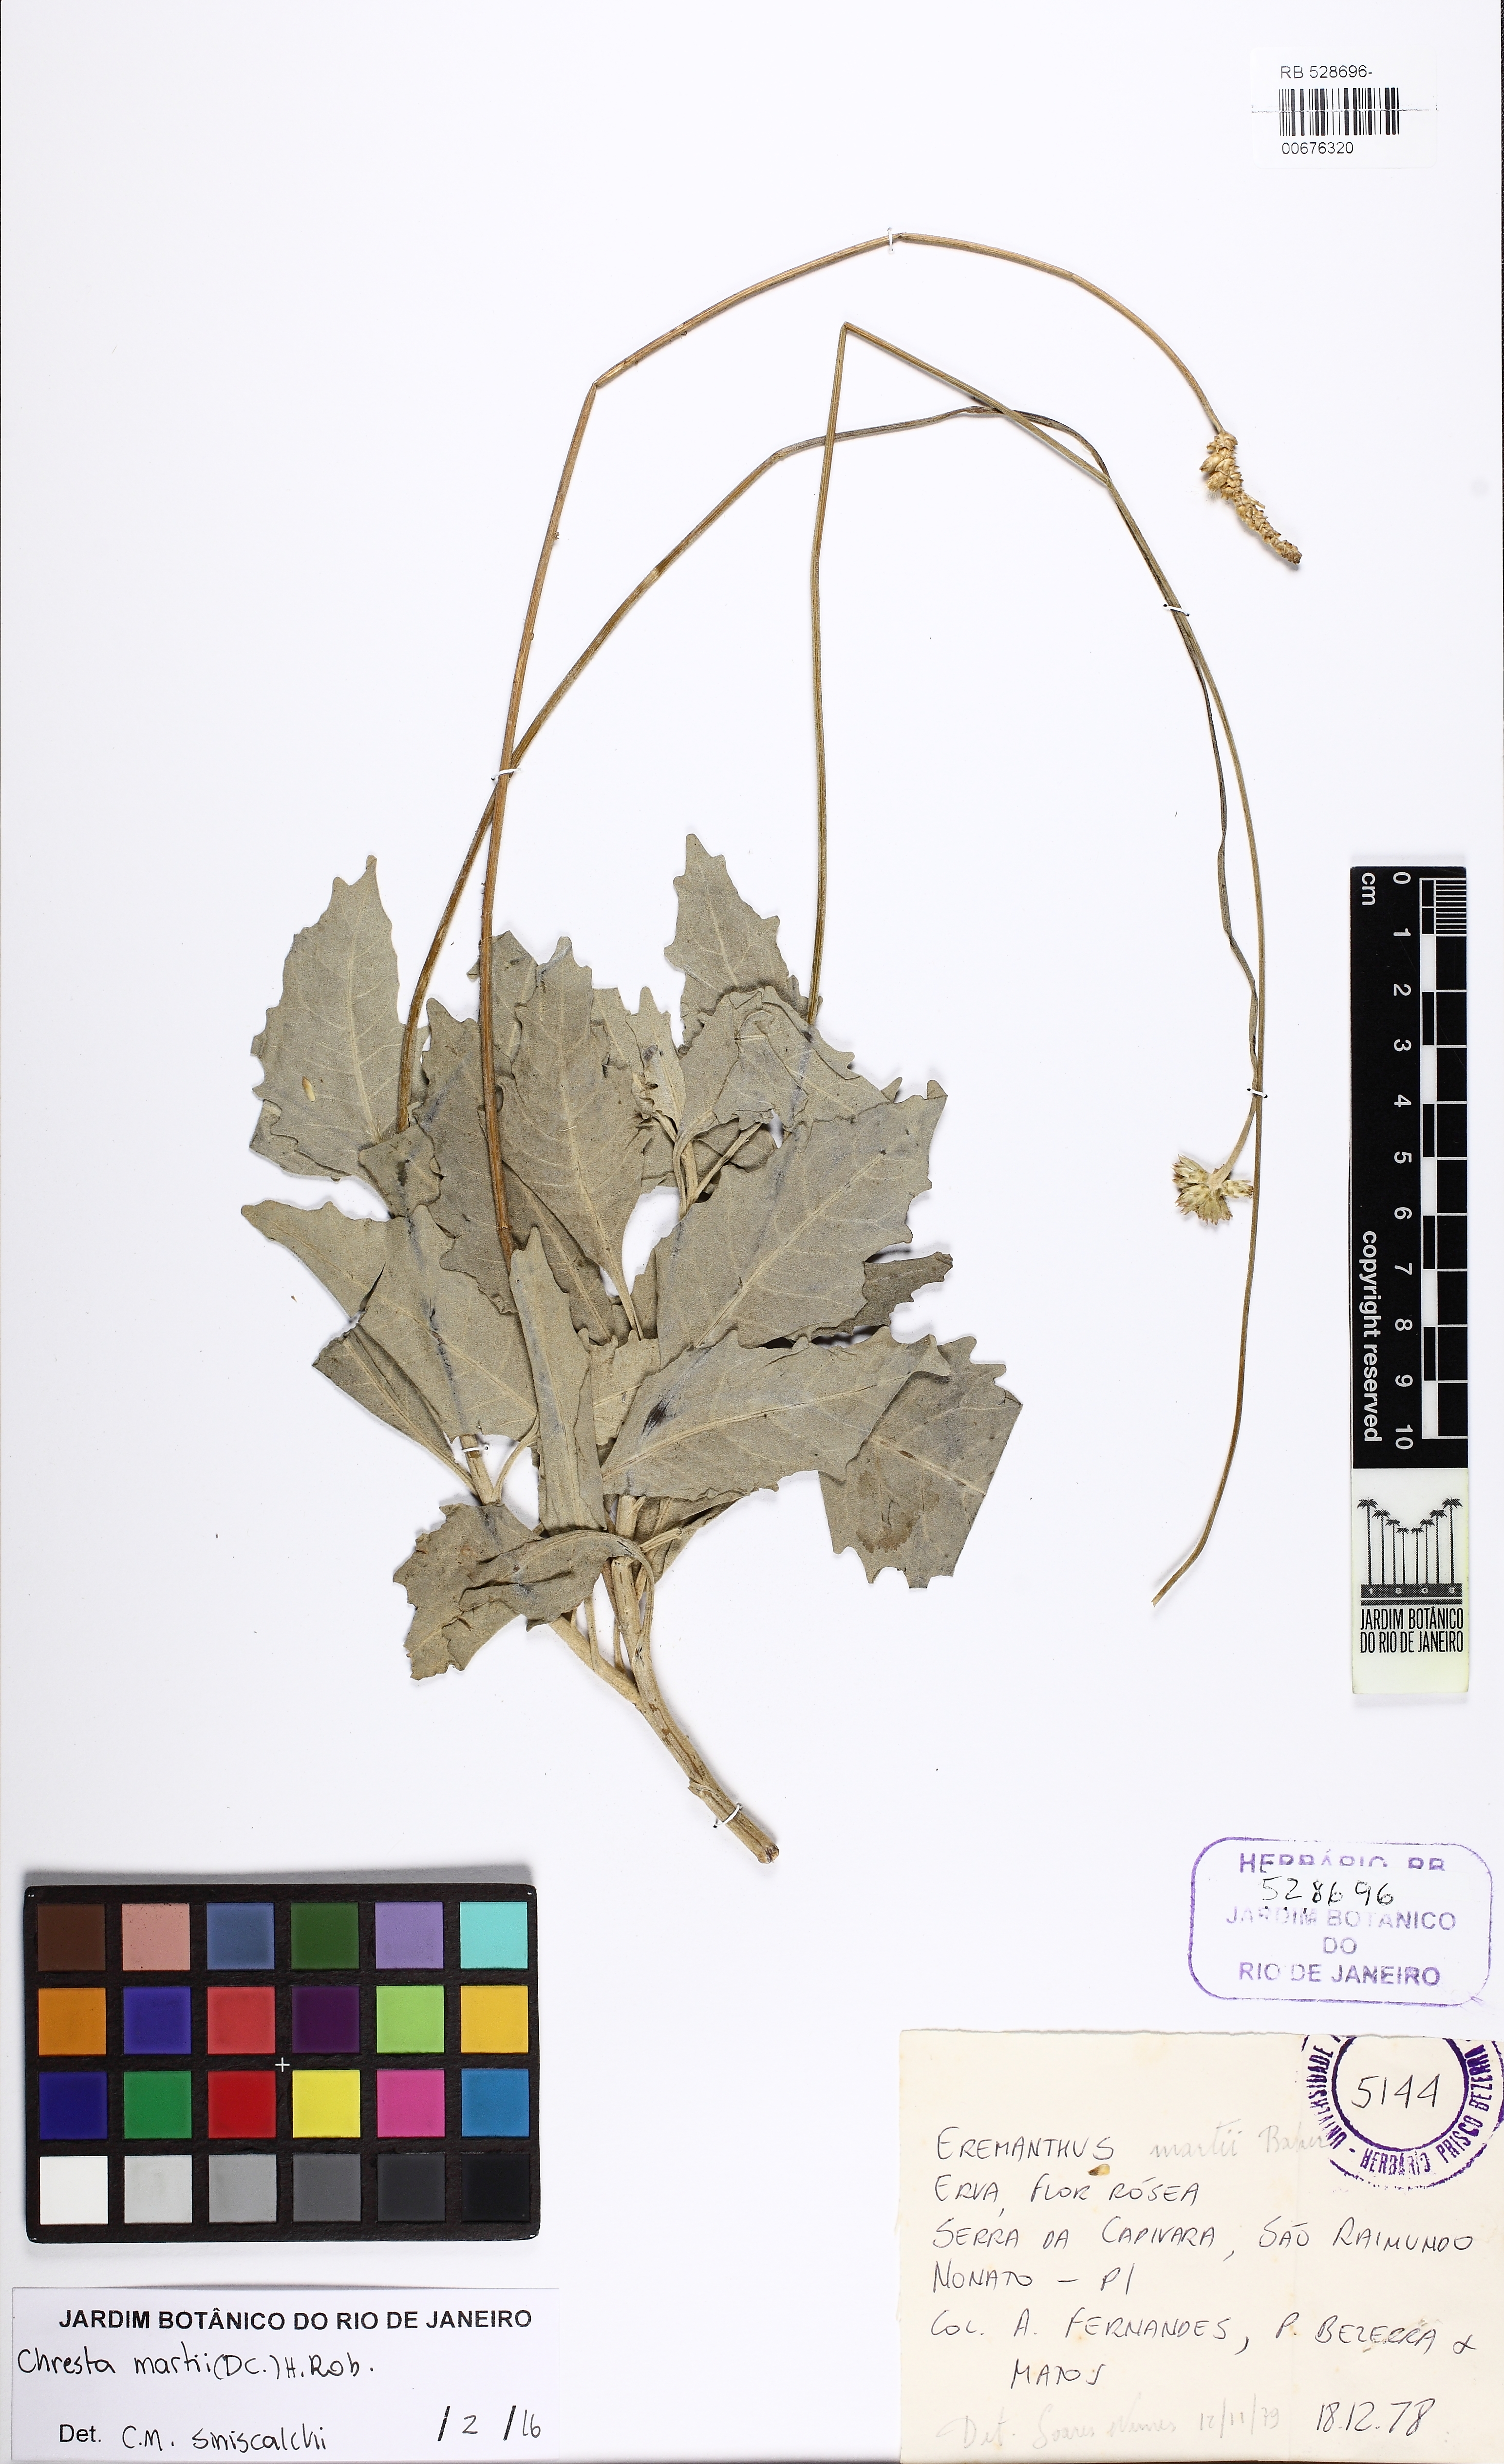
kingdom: Plantae
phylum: Tracheophyta
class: Magnoliopsida
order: Asterales
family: Asteraceae
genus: Chresta
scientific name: Chresta martii
